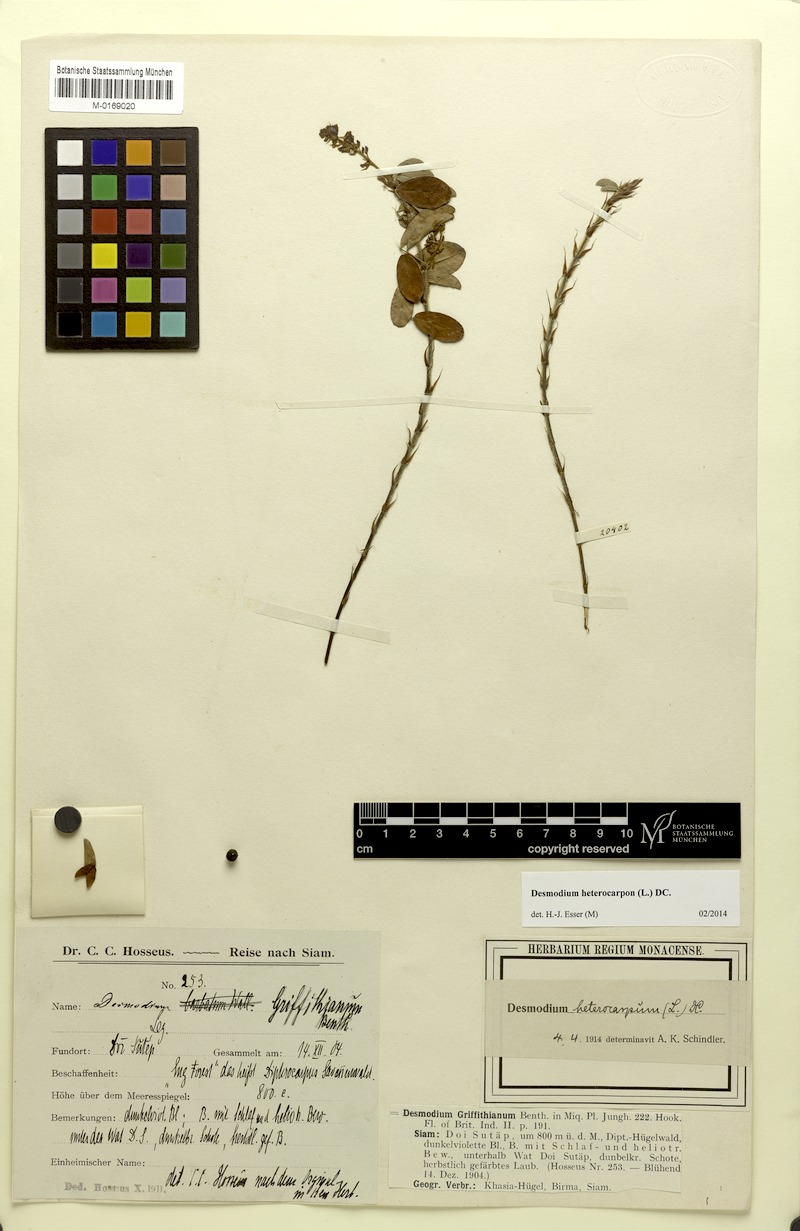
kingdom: Plantae
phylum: Tracheophyta
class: Magnoliopsida
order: Fabales
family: Fabaceae
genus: Grona
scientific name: Grona heterocarpos
